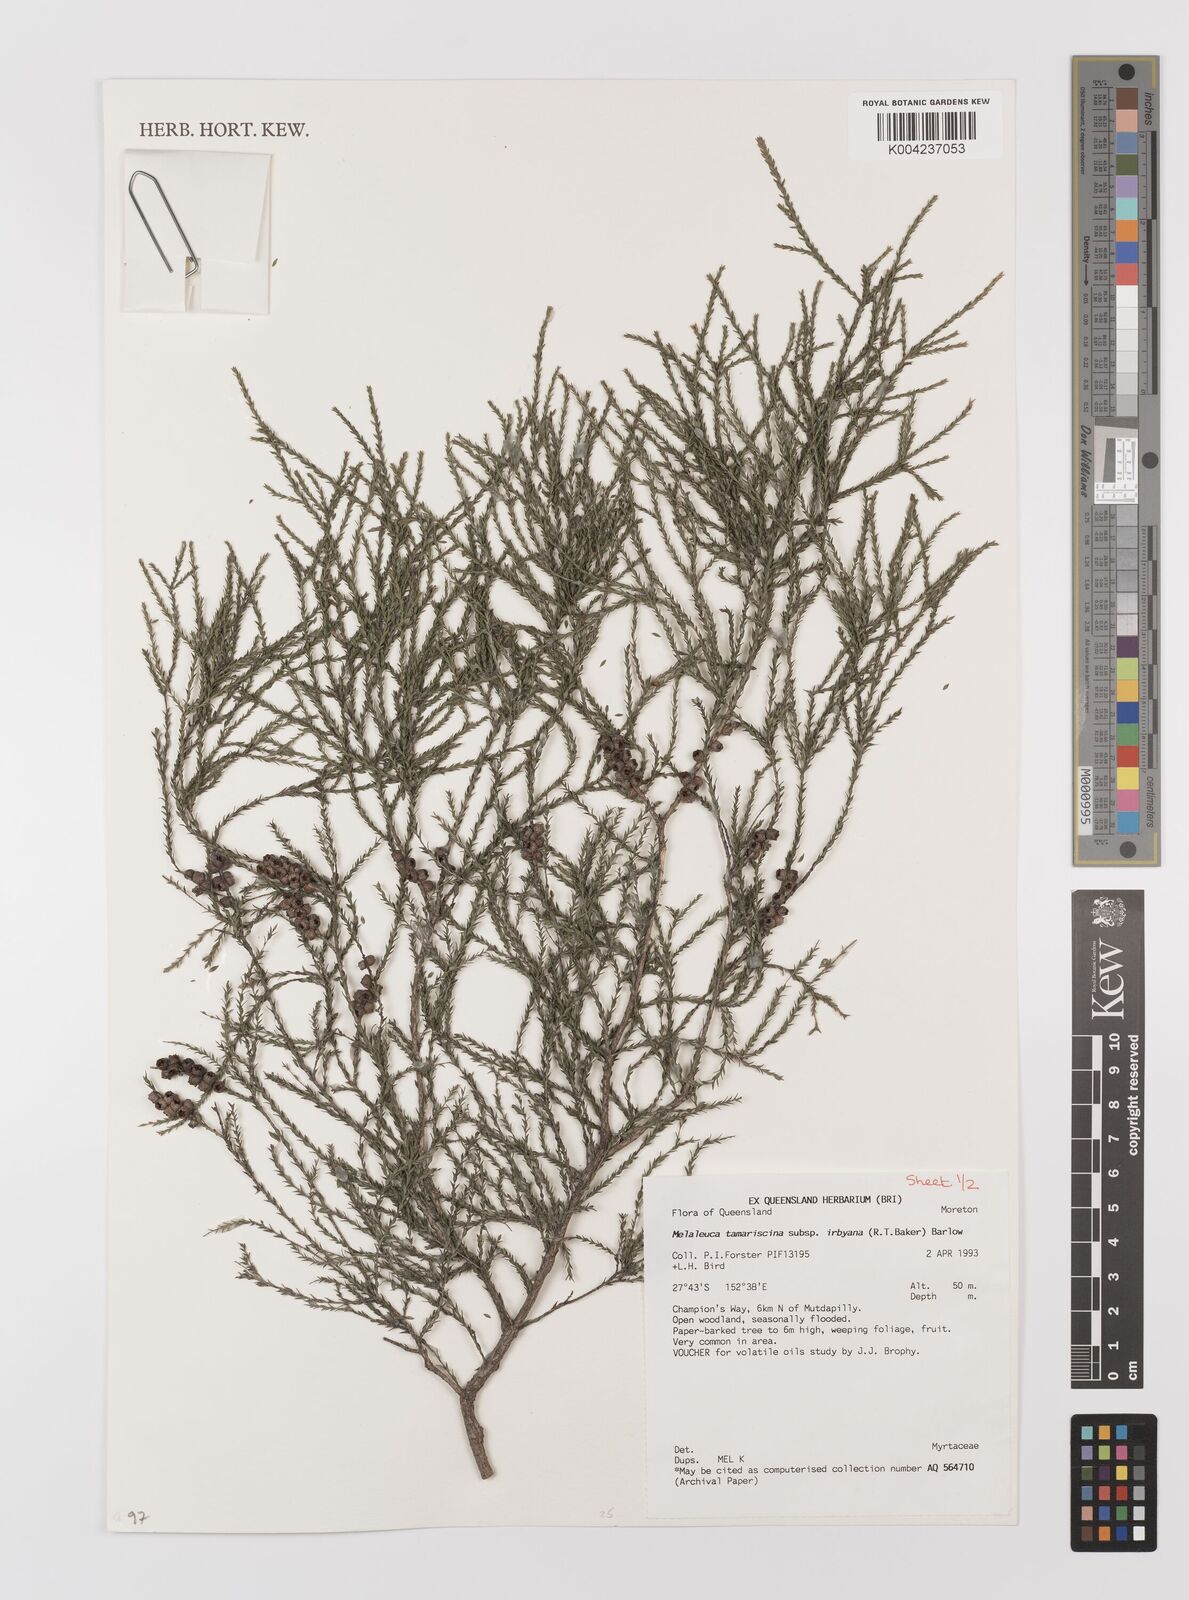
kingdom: Plantae
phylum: Tracheophyta
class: Magnoliopsida
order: Myrtales
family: Myrtaceae
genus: Melaleuca
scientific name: Melaleuca tamariscina
